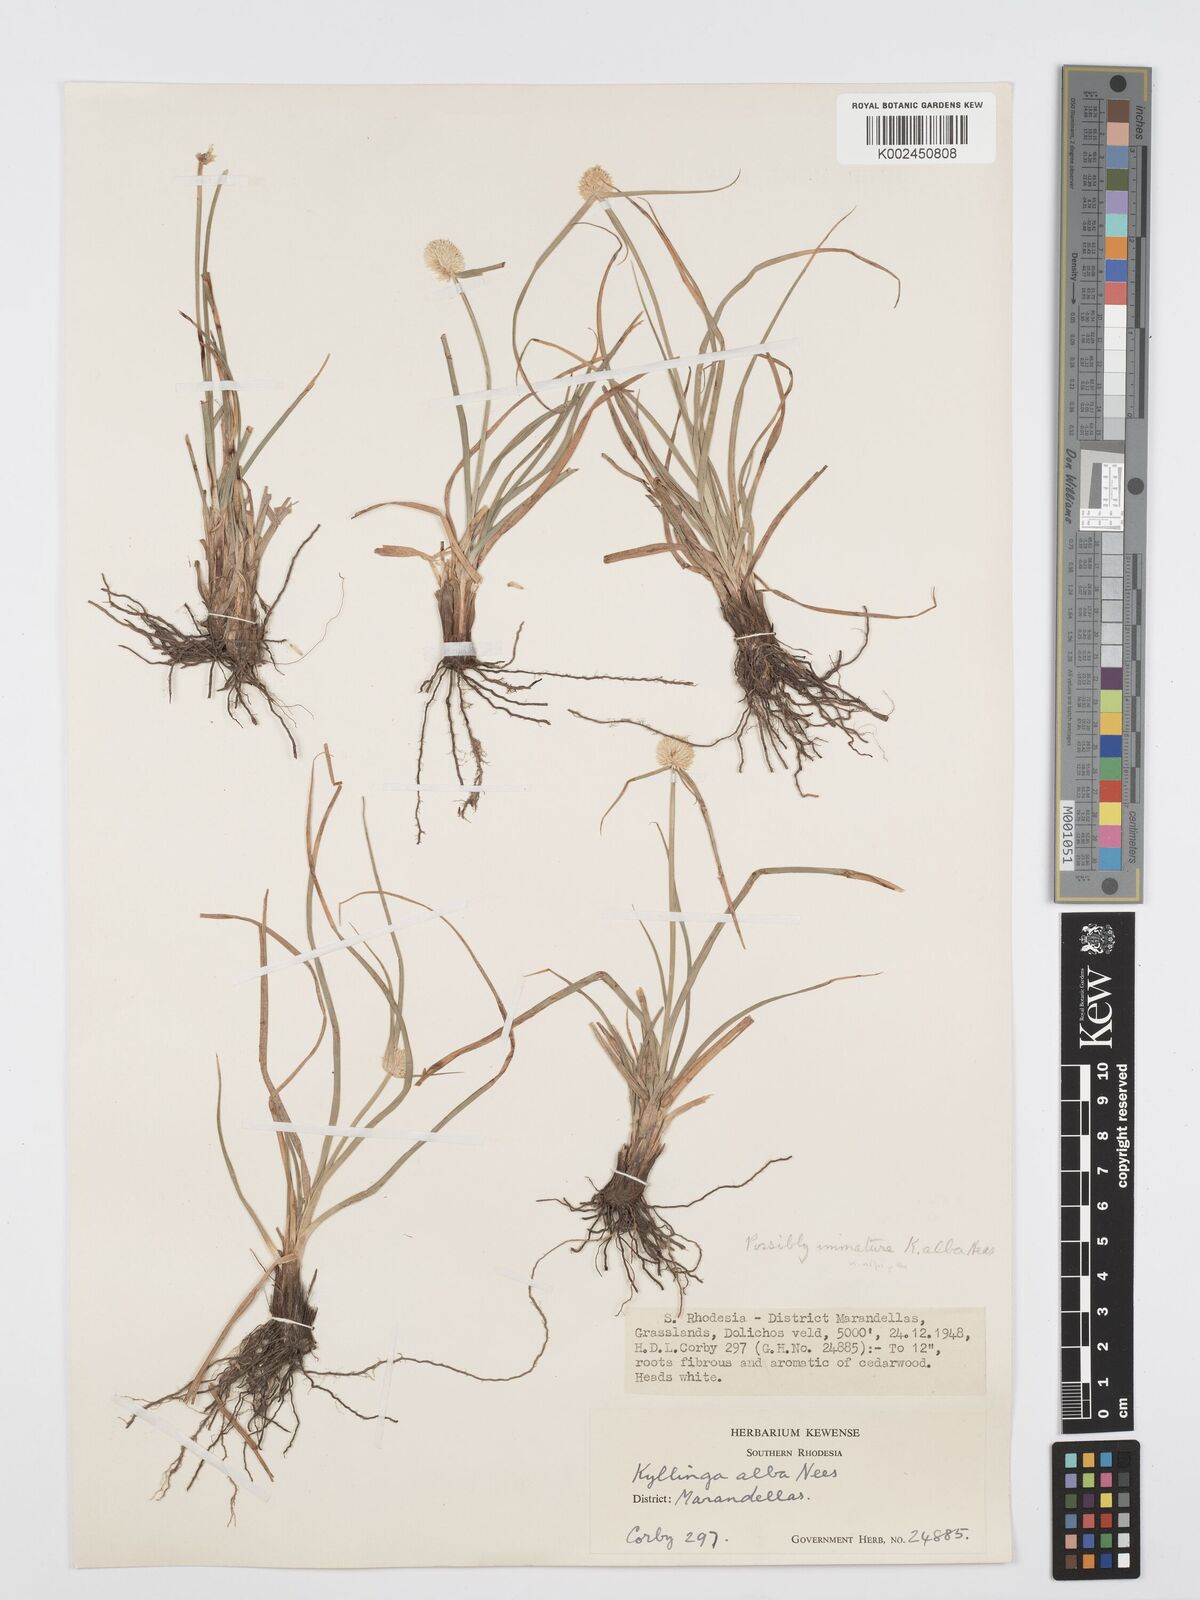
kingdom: Plantae
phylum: Tracheophyta
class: Liliopsida
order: Poales
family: Cyperaceae
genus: Cyperus
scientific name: Cyperus
